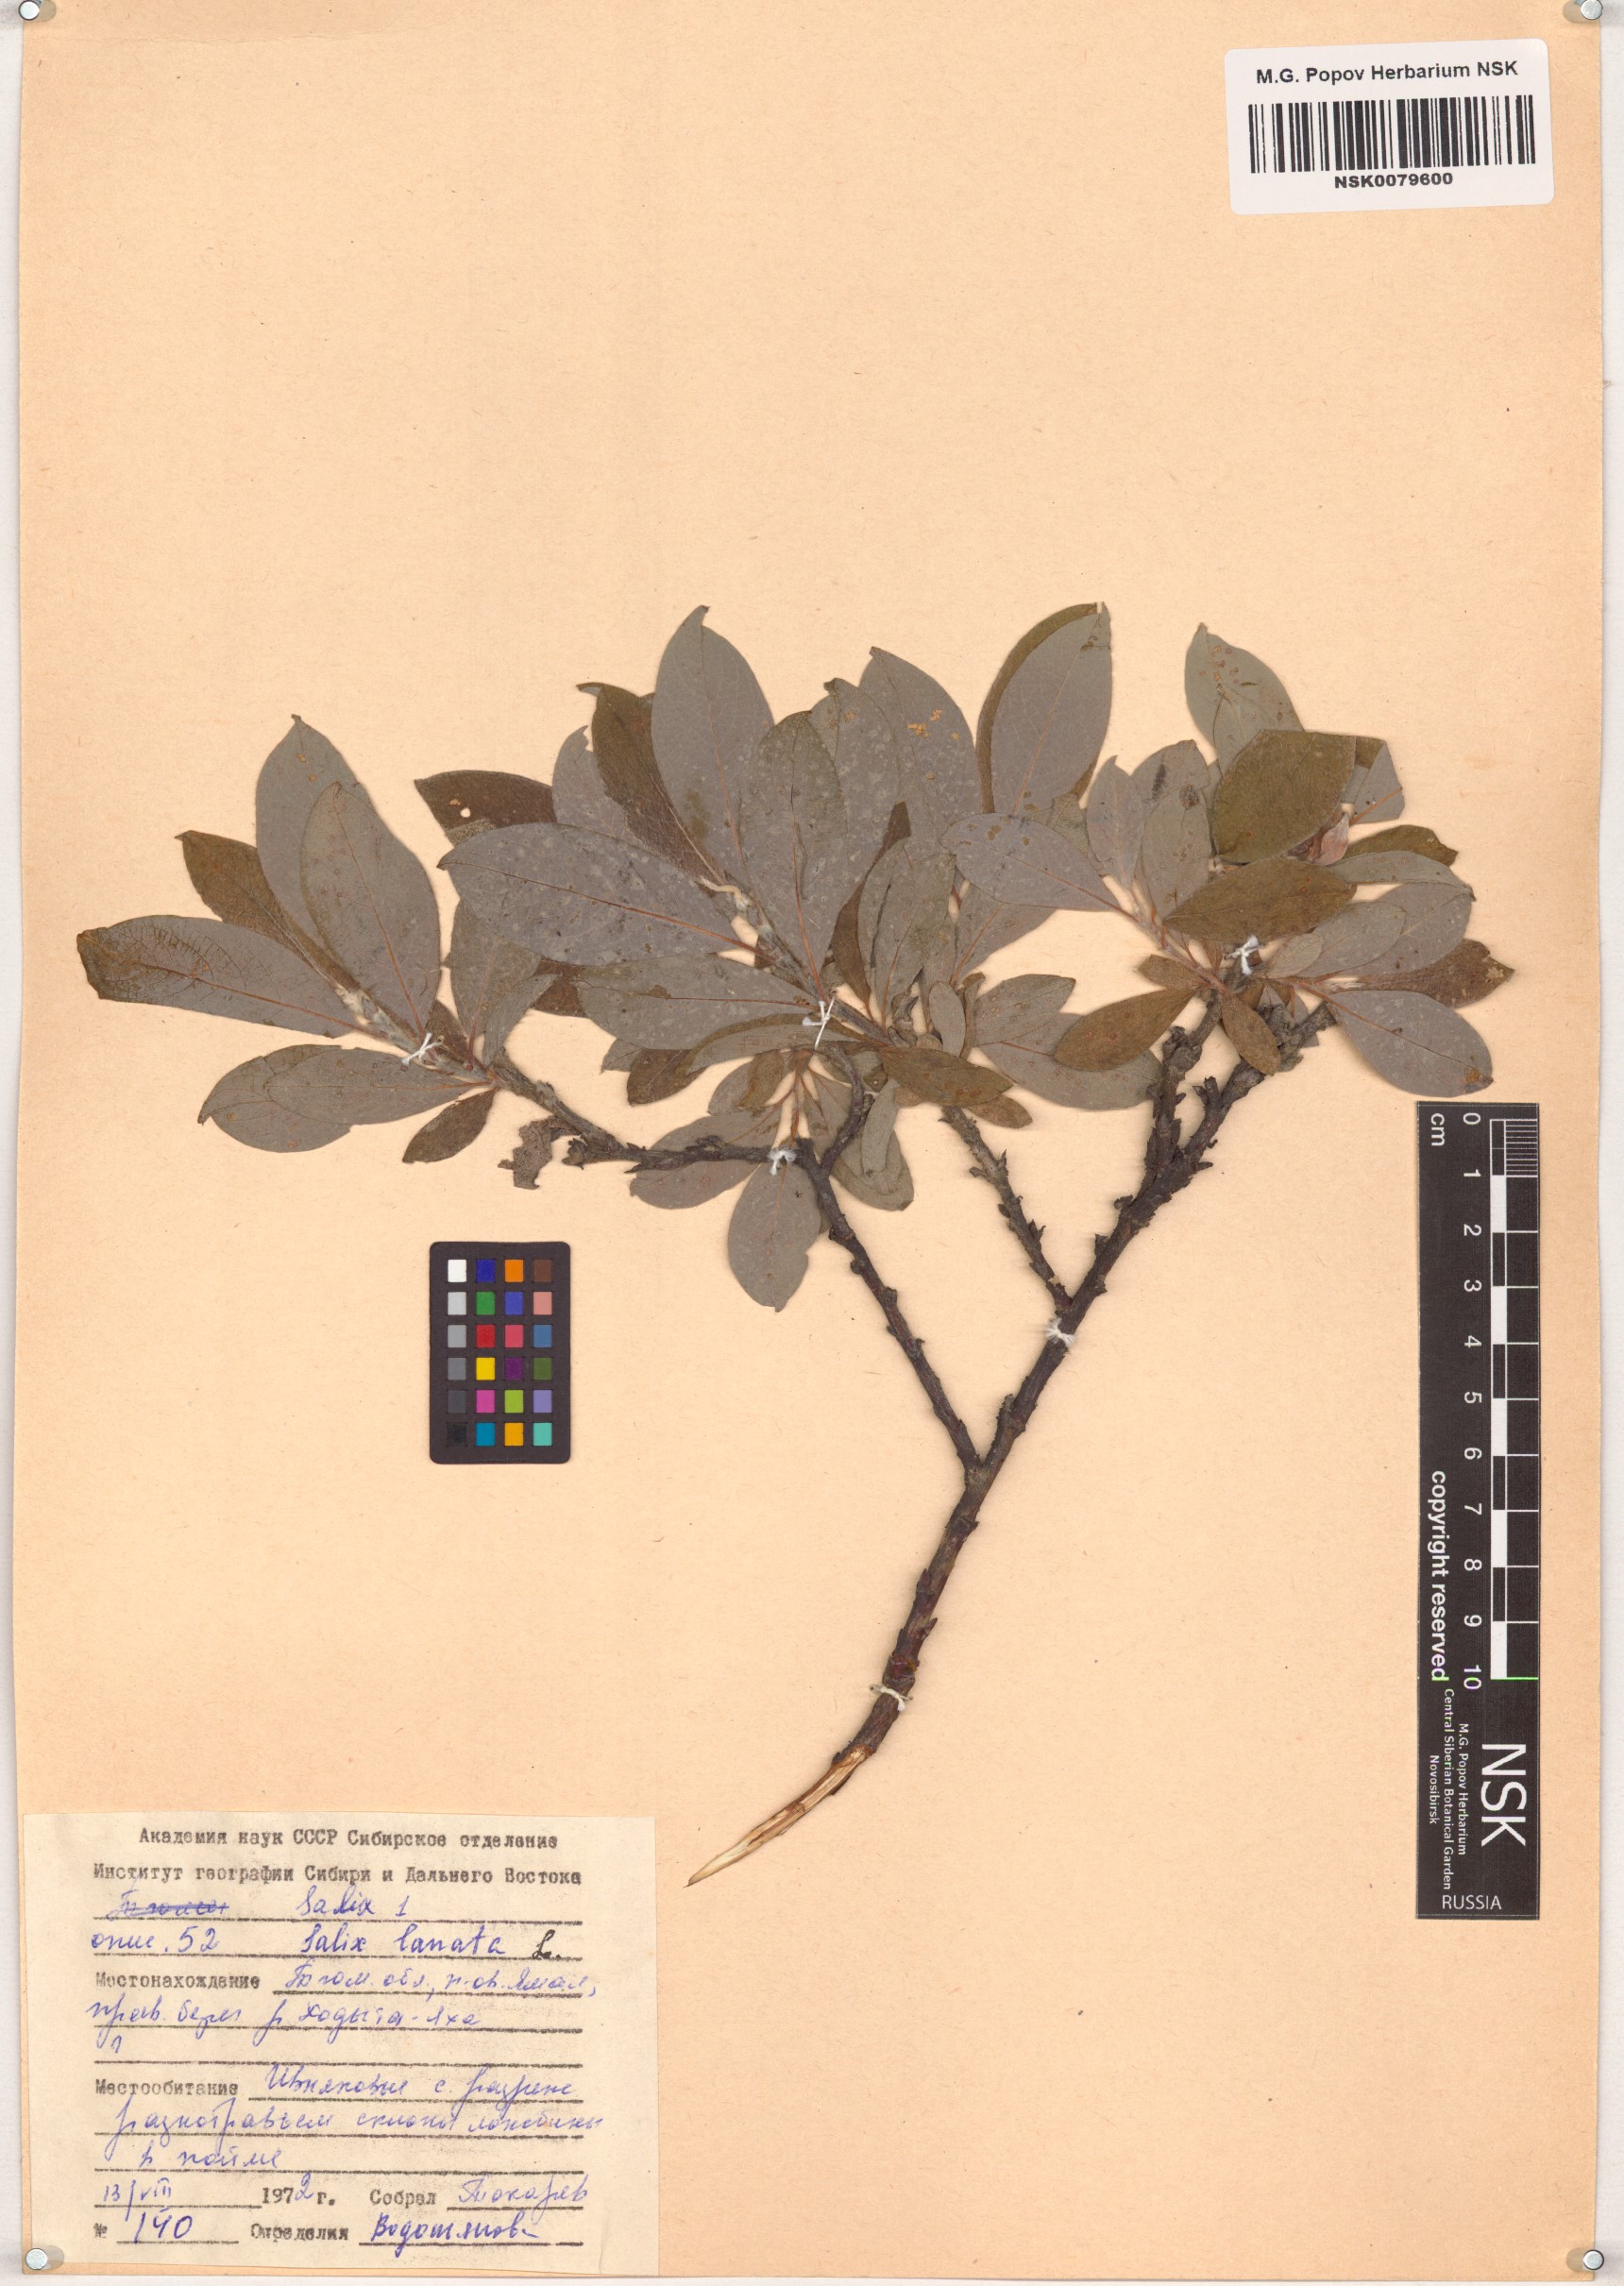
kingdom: Plantae
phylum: Tracheophyta
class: Magnoliopsida
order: Malpighiales
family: Salicaceae
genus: Salix
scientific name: Salix lanata
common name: Woolly willow
